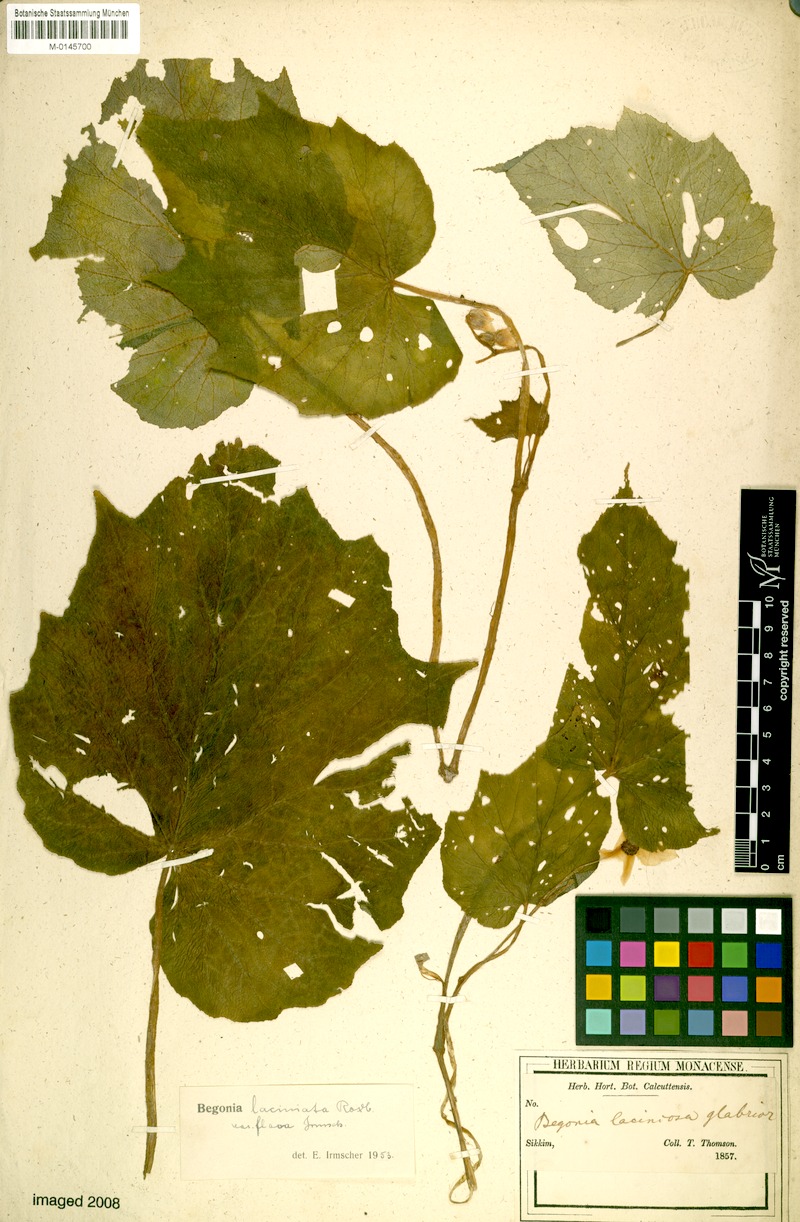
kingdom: Plantae
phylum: Tracheophyta
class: Magnoliopsida
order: Cucurbitales
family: Begoniaceae
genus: Begonia
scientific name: Begonia palmata
